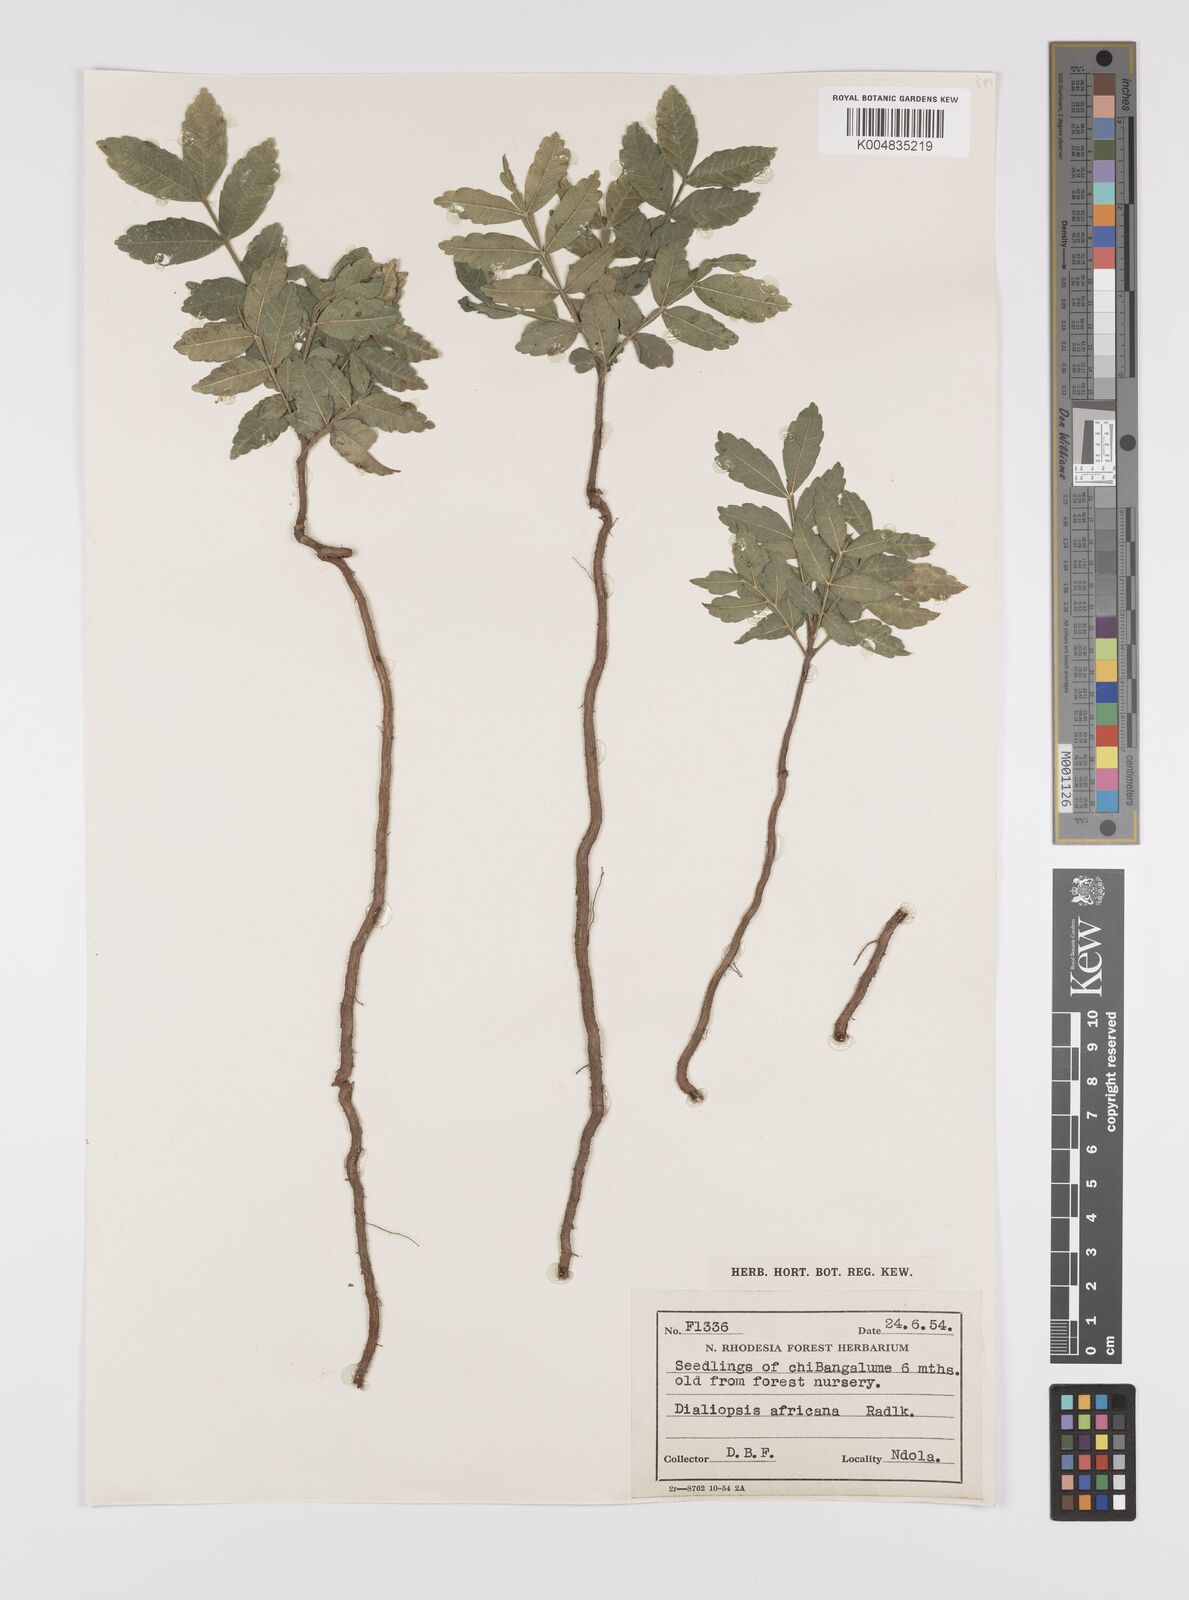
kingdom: Plantae
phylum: Tracheophyta
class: Magnoliopsida
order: Sapindales
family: Sapindaceae
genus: Zanha
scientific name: Zanha africana
